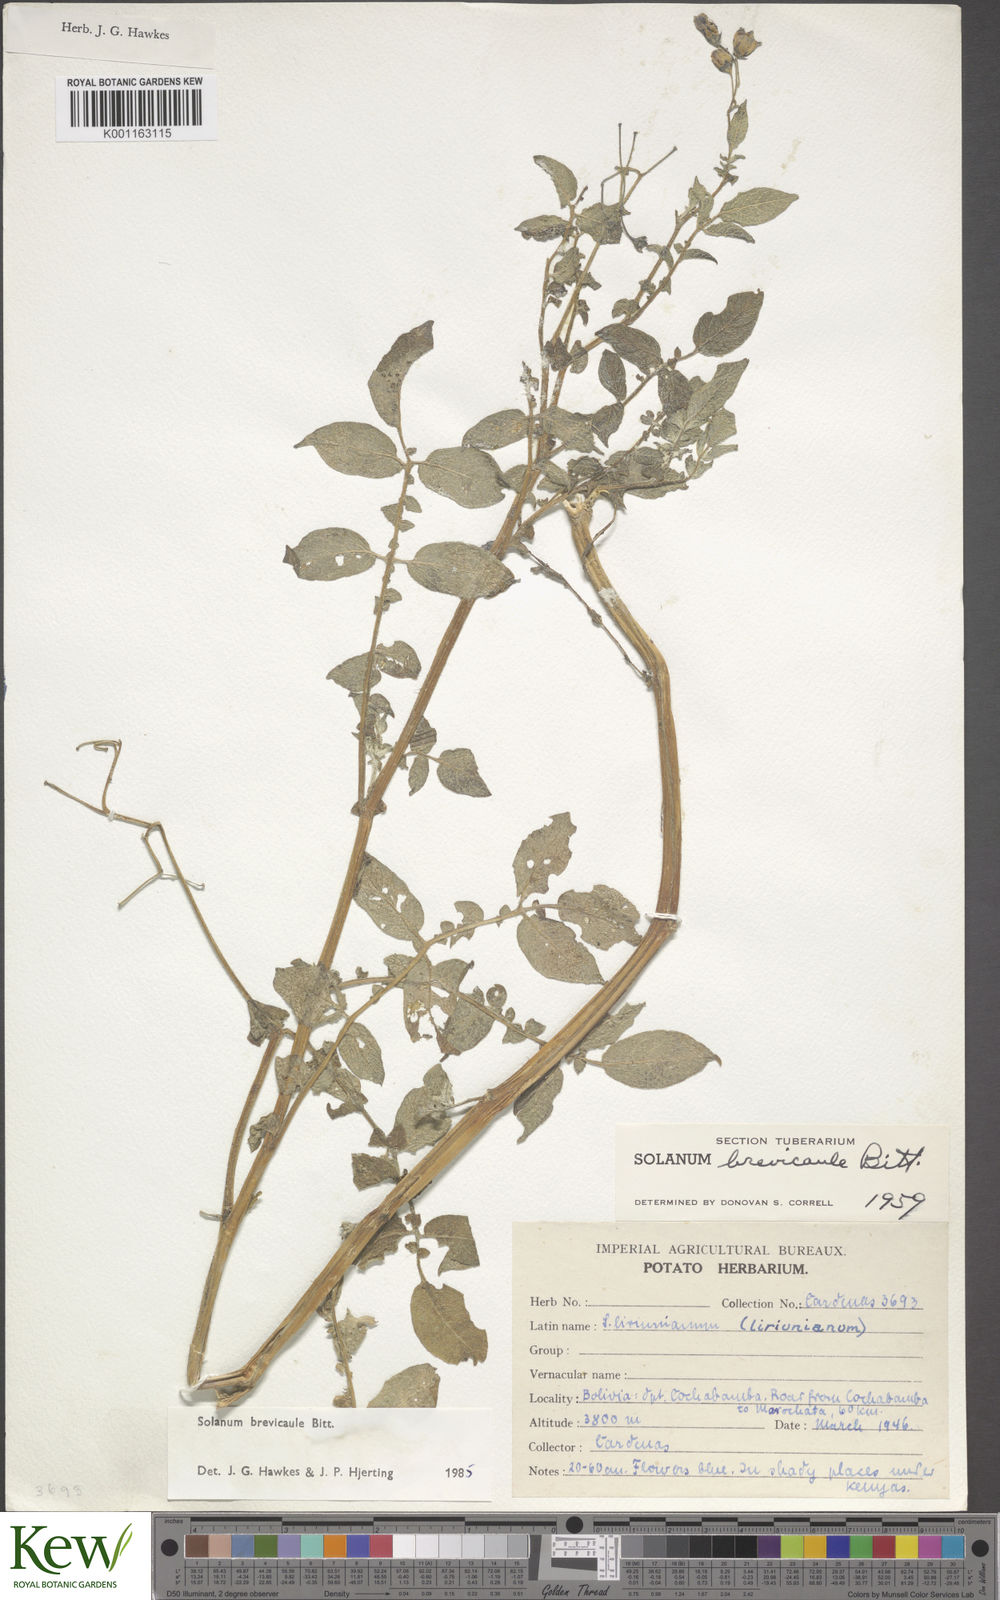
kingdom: Plantae
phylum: Tracheophyta
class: Magnoliopsida
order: Solanales
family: Solanaceae
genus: Solanum
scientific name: Solanum brevicaule
